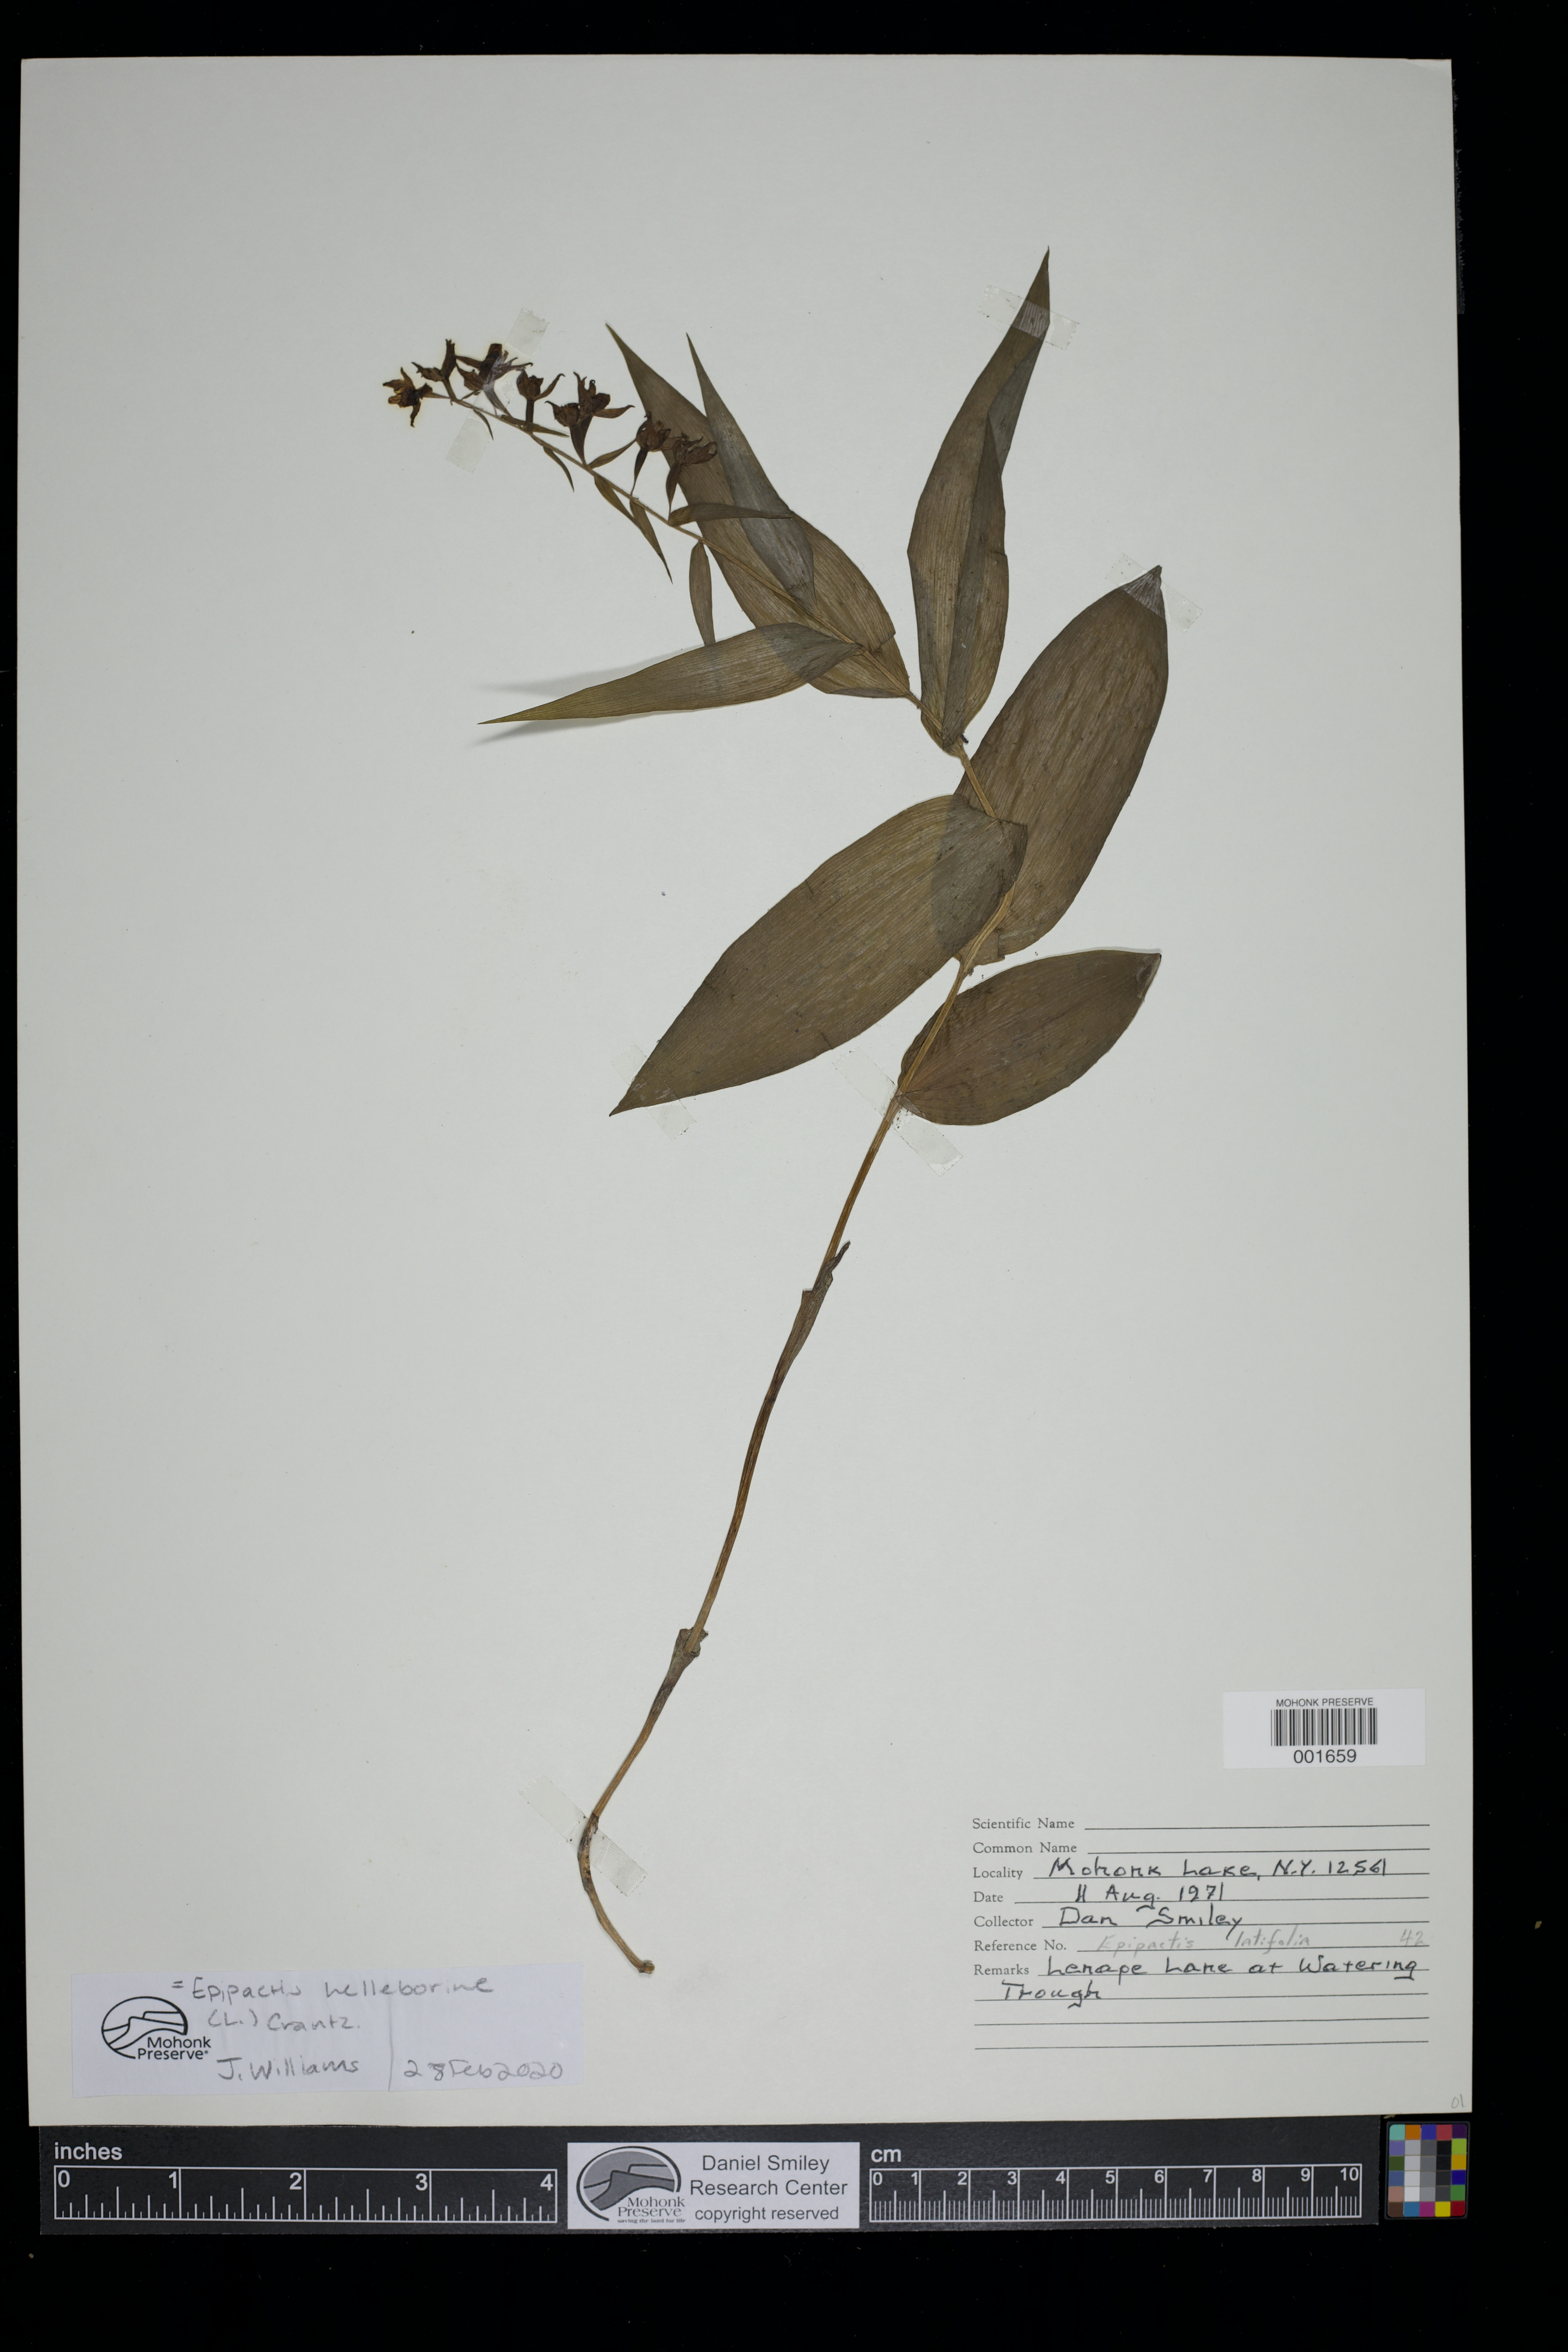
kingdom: Plantae
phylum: Tracheophyta
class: Liliopsida
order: Asparagales
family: Orchidaceae
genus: Epipactis
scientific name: Epipactis helleborine
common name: Broad-leaved helleborine
